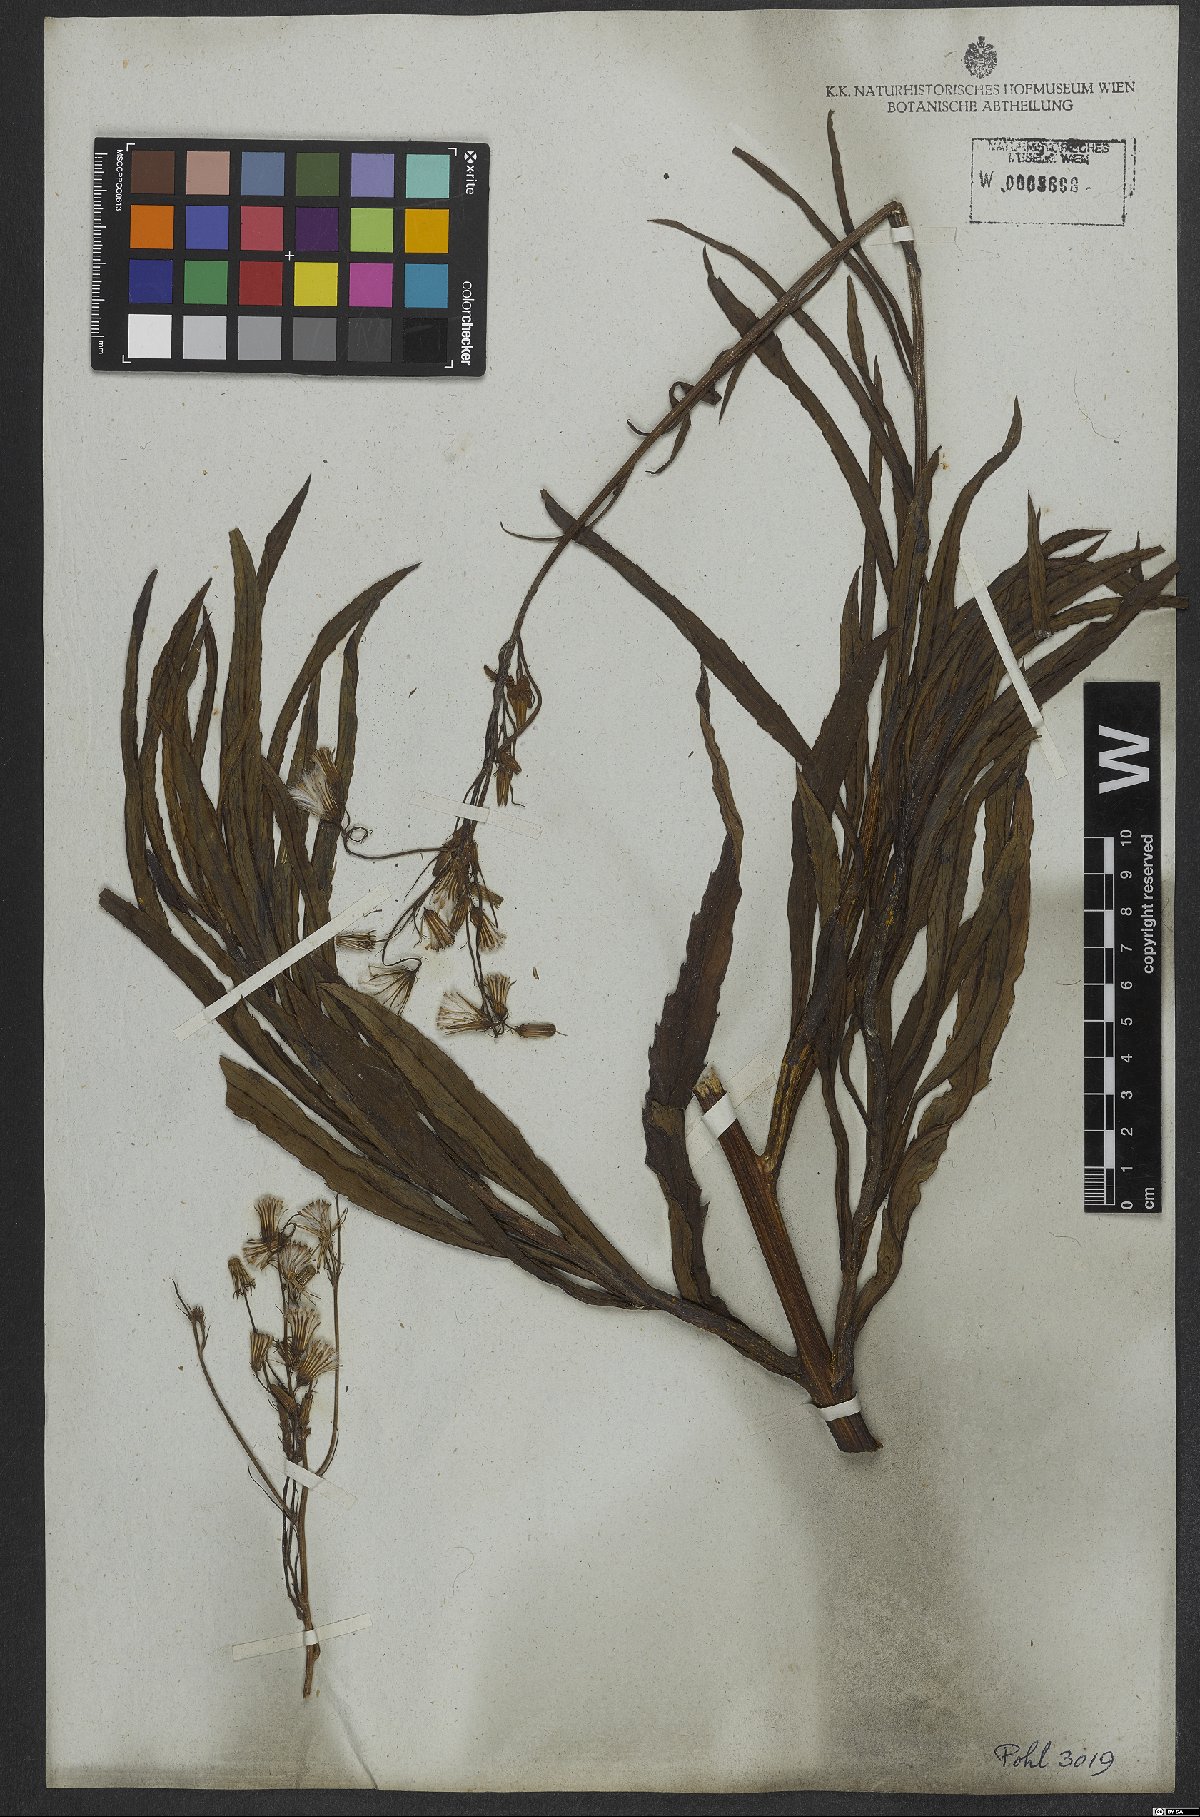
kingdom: Plantae
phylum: Tracheophyta
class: Magnoliopsida
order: Asterales
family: Asteraceae
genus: Erechtites
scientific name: Erechtites goyazensis
